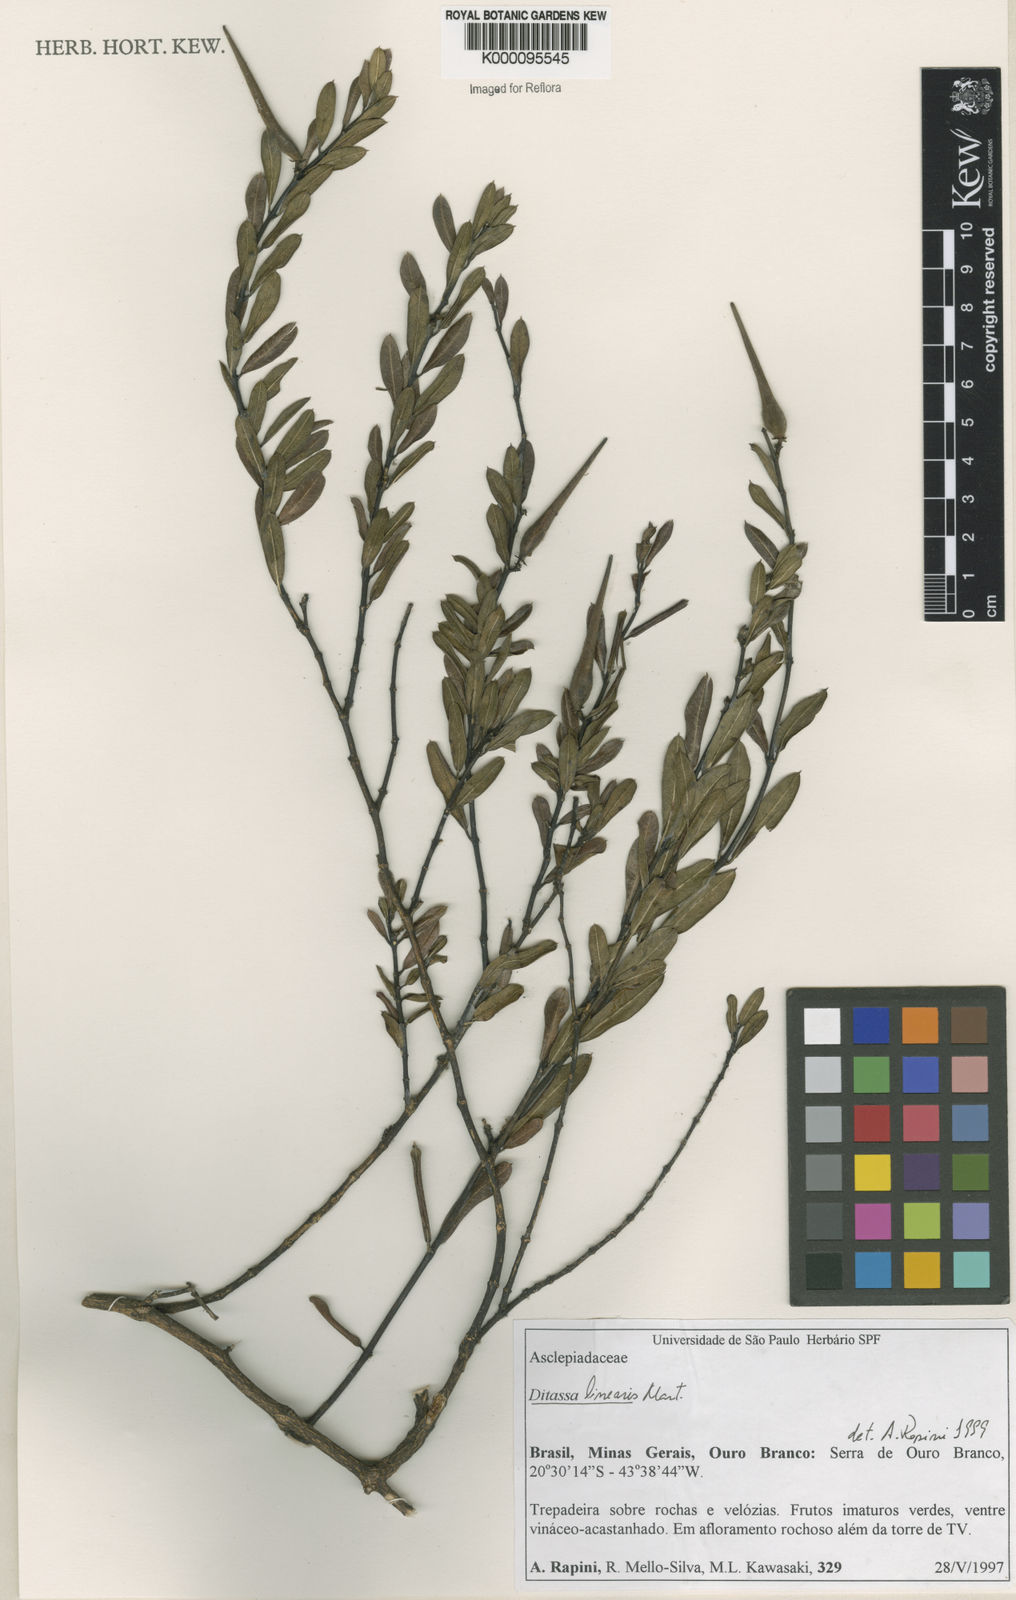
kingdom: Plantae
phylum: Tracheophyta
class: Magnoliopsida
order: Gentianales
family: Apocynaceae
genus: Ditassa
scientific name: Ditassa linearis
